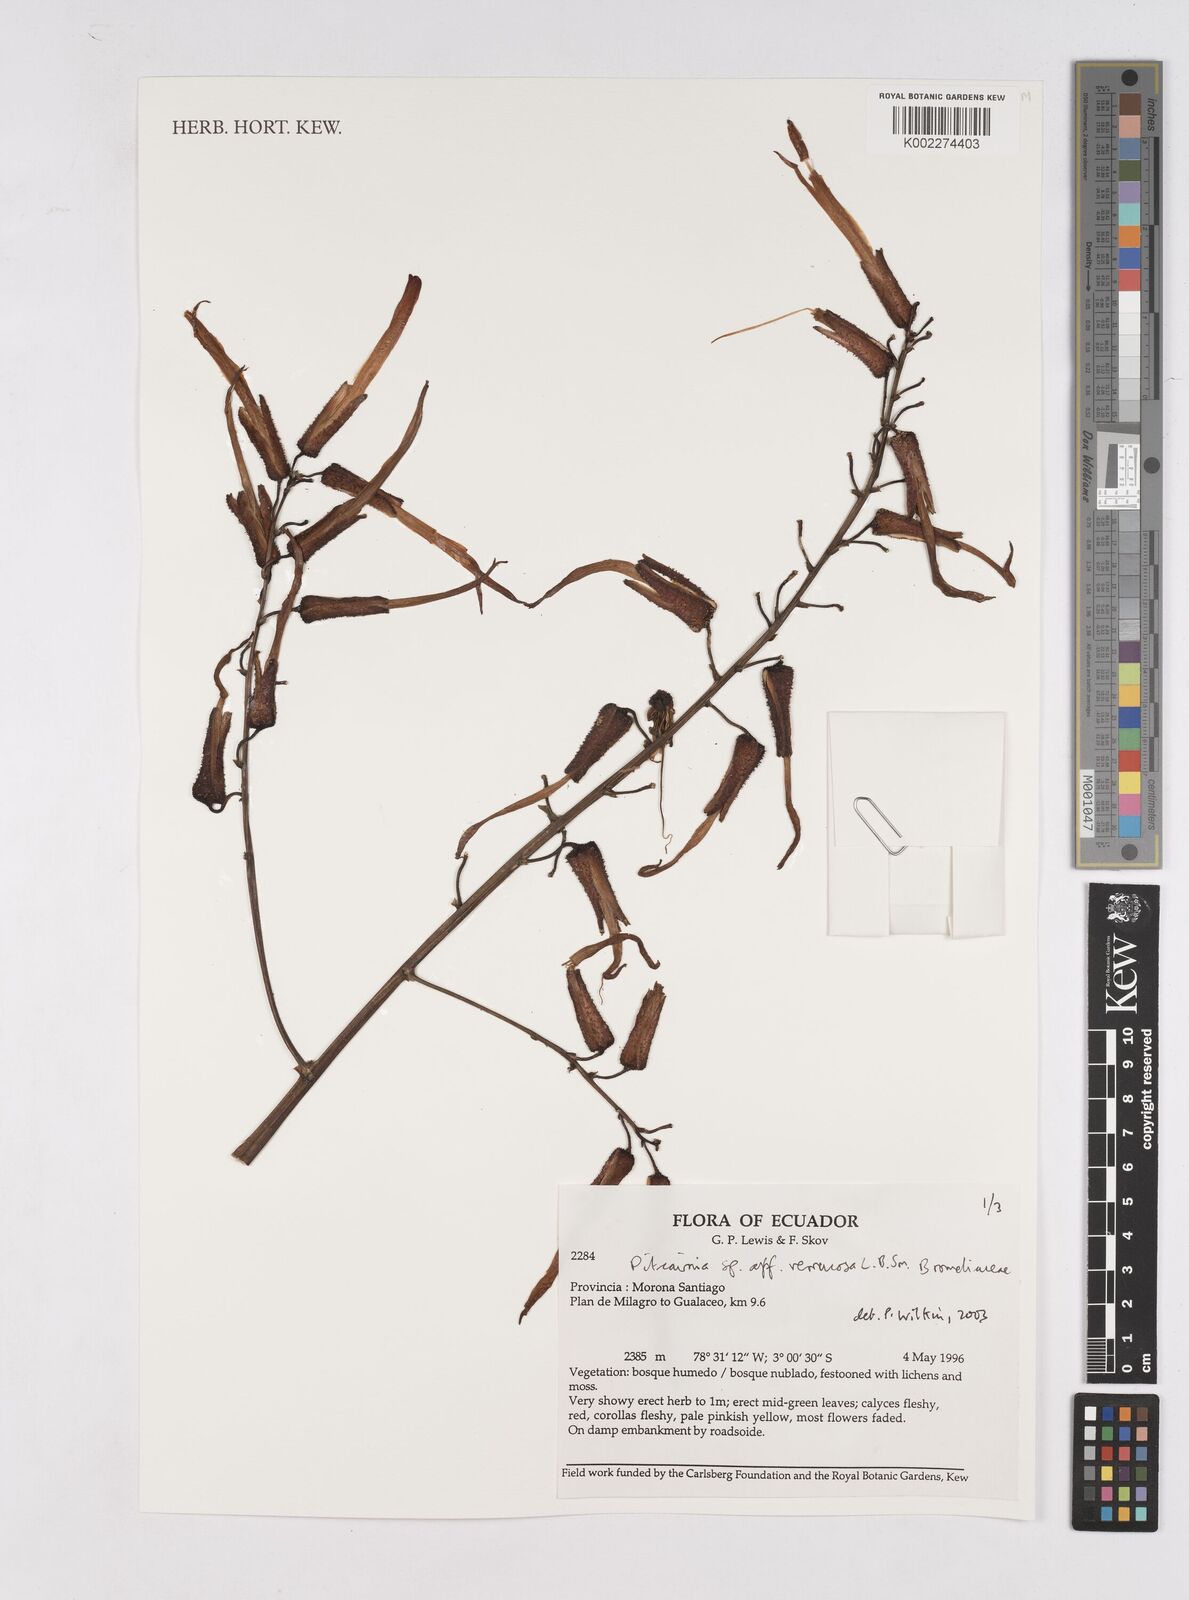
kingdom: Plantae
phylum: Tracheophyta
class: Liliopsida
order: Poales
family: Bromeliaceae
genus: Pitcairnia
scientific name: Pitcairnia verrucosa
